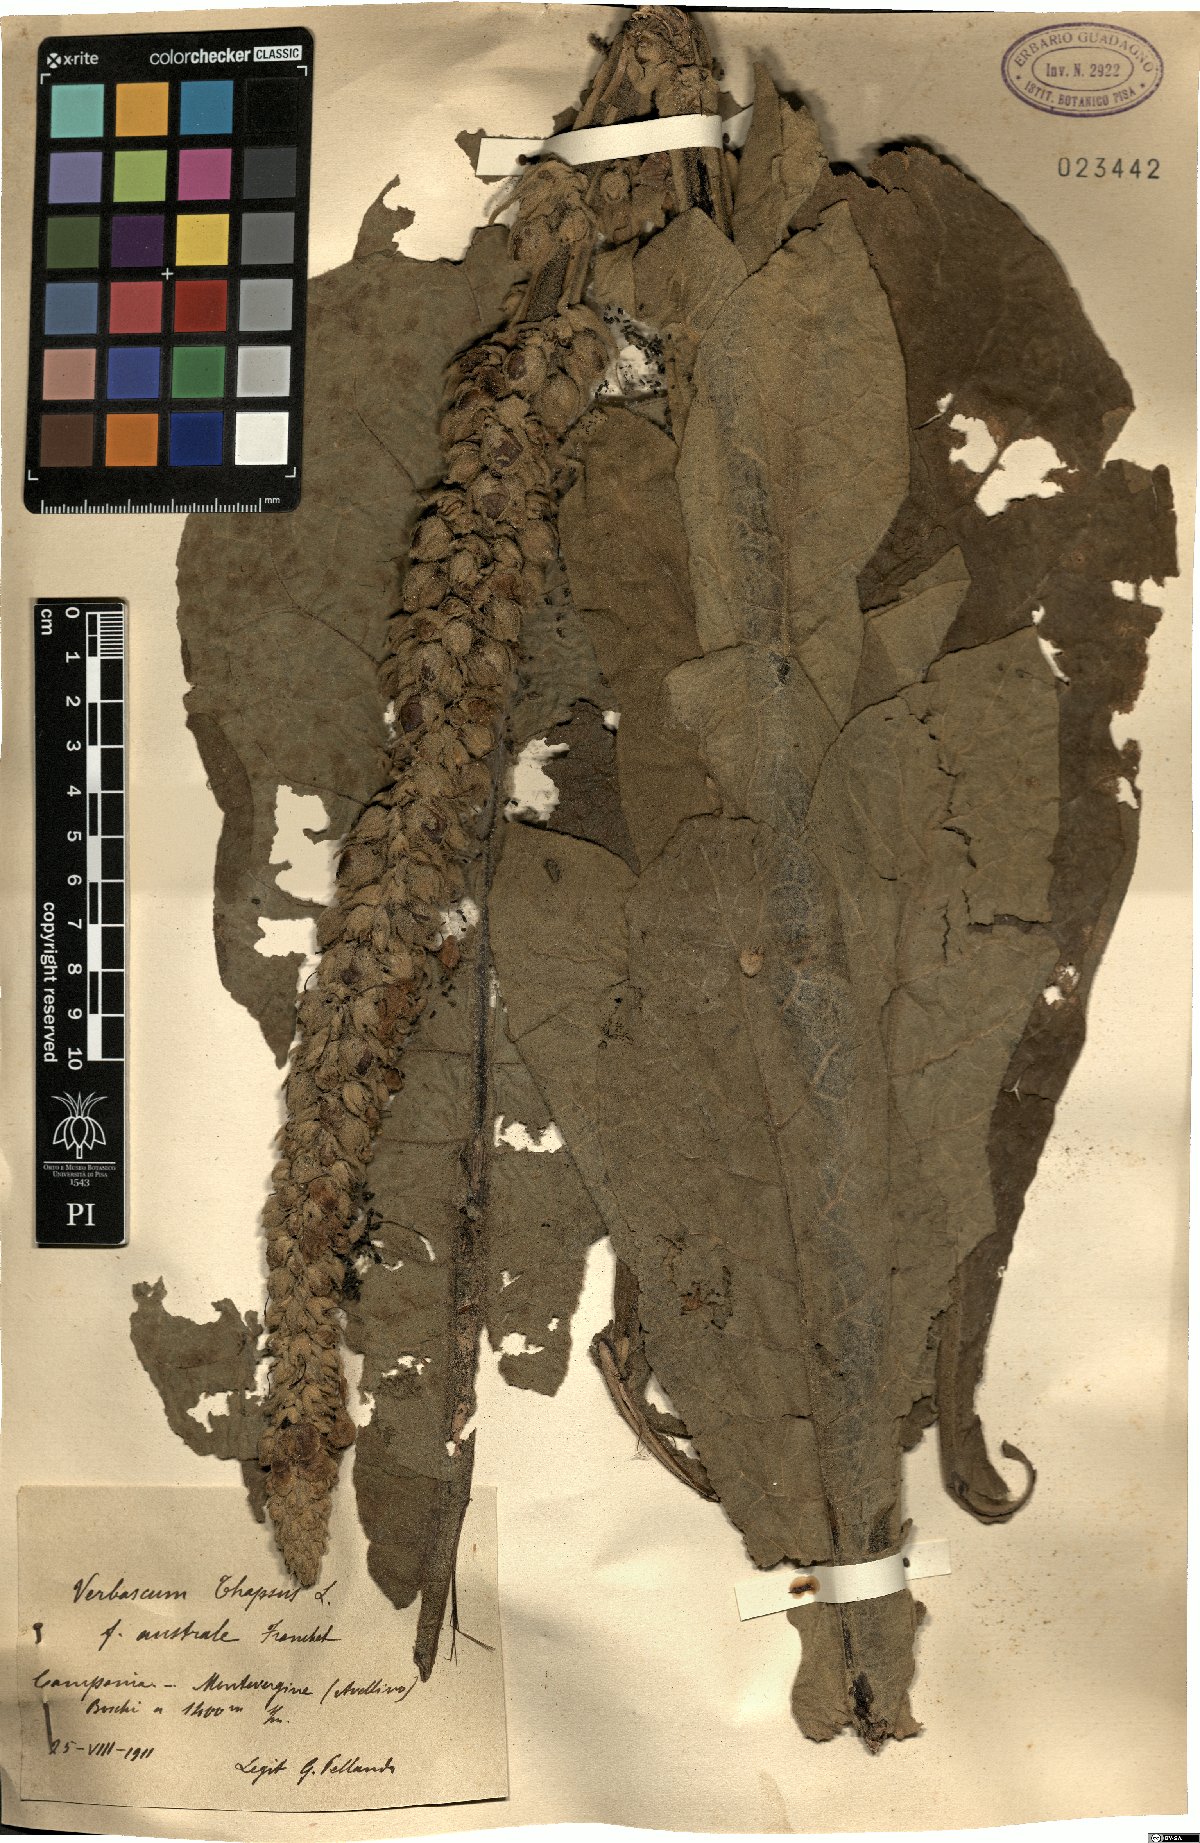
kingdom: Plantae
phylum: Tracheophyta
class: Magnoliopsida
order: Lamiales
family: Scrophulariaceae
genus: Verbascum
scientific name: Verbascum thapsus
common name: Common mullein
